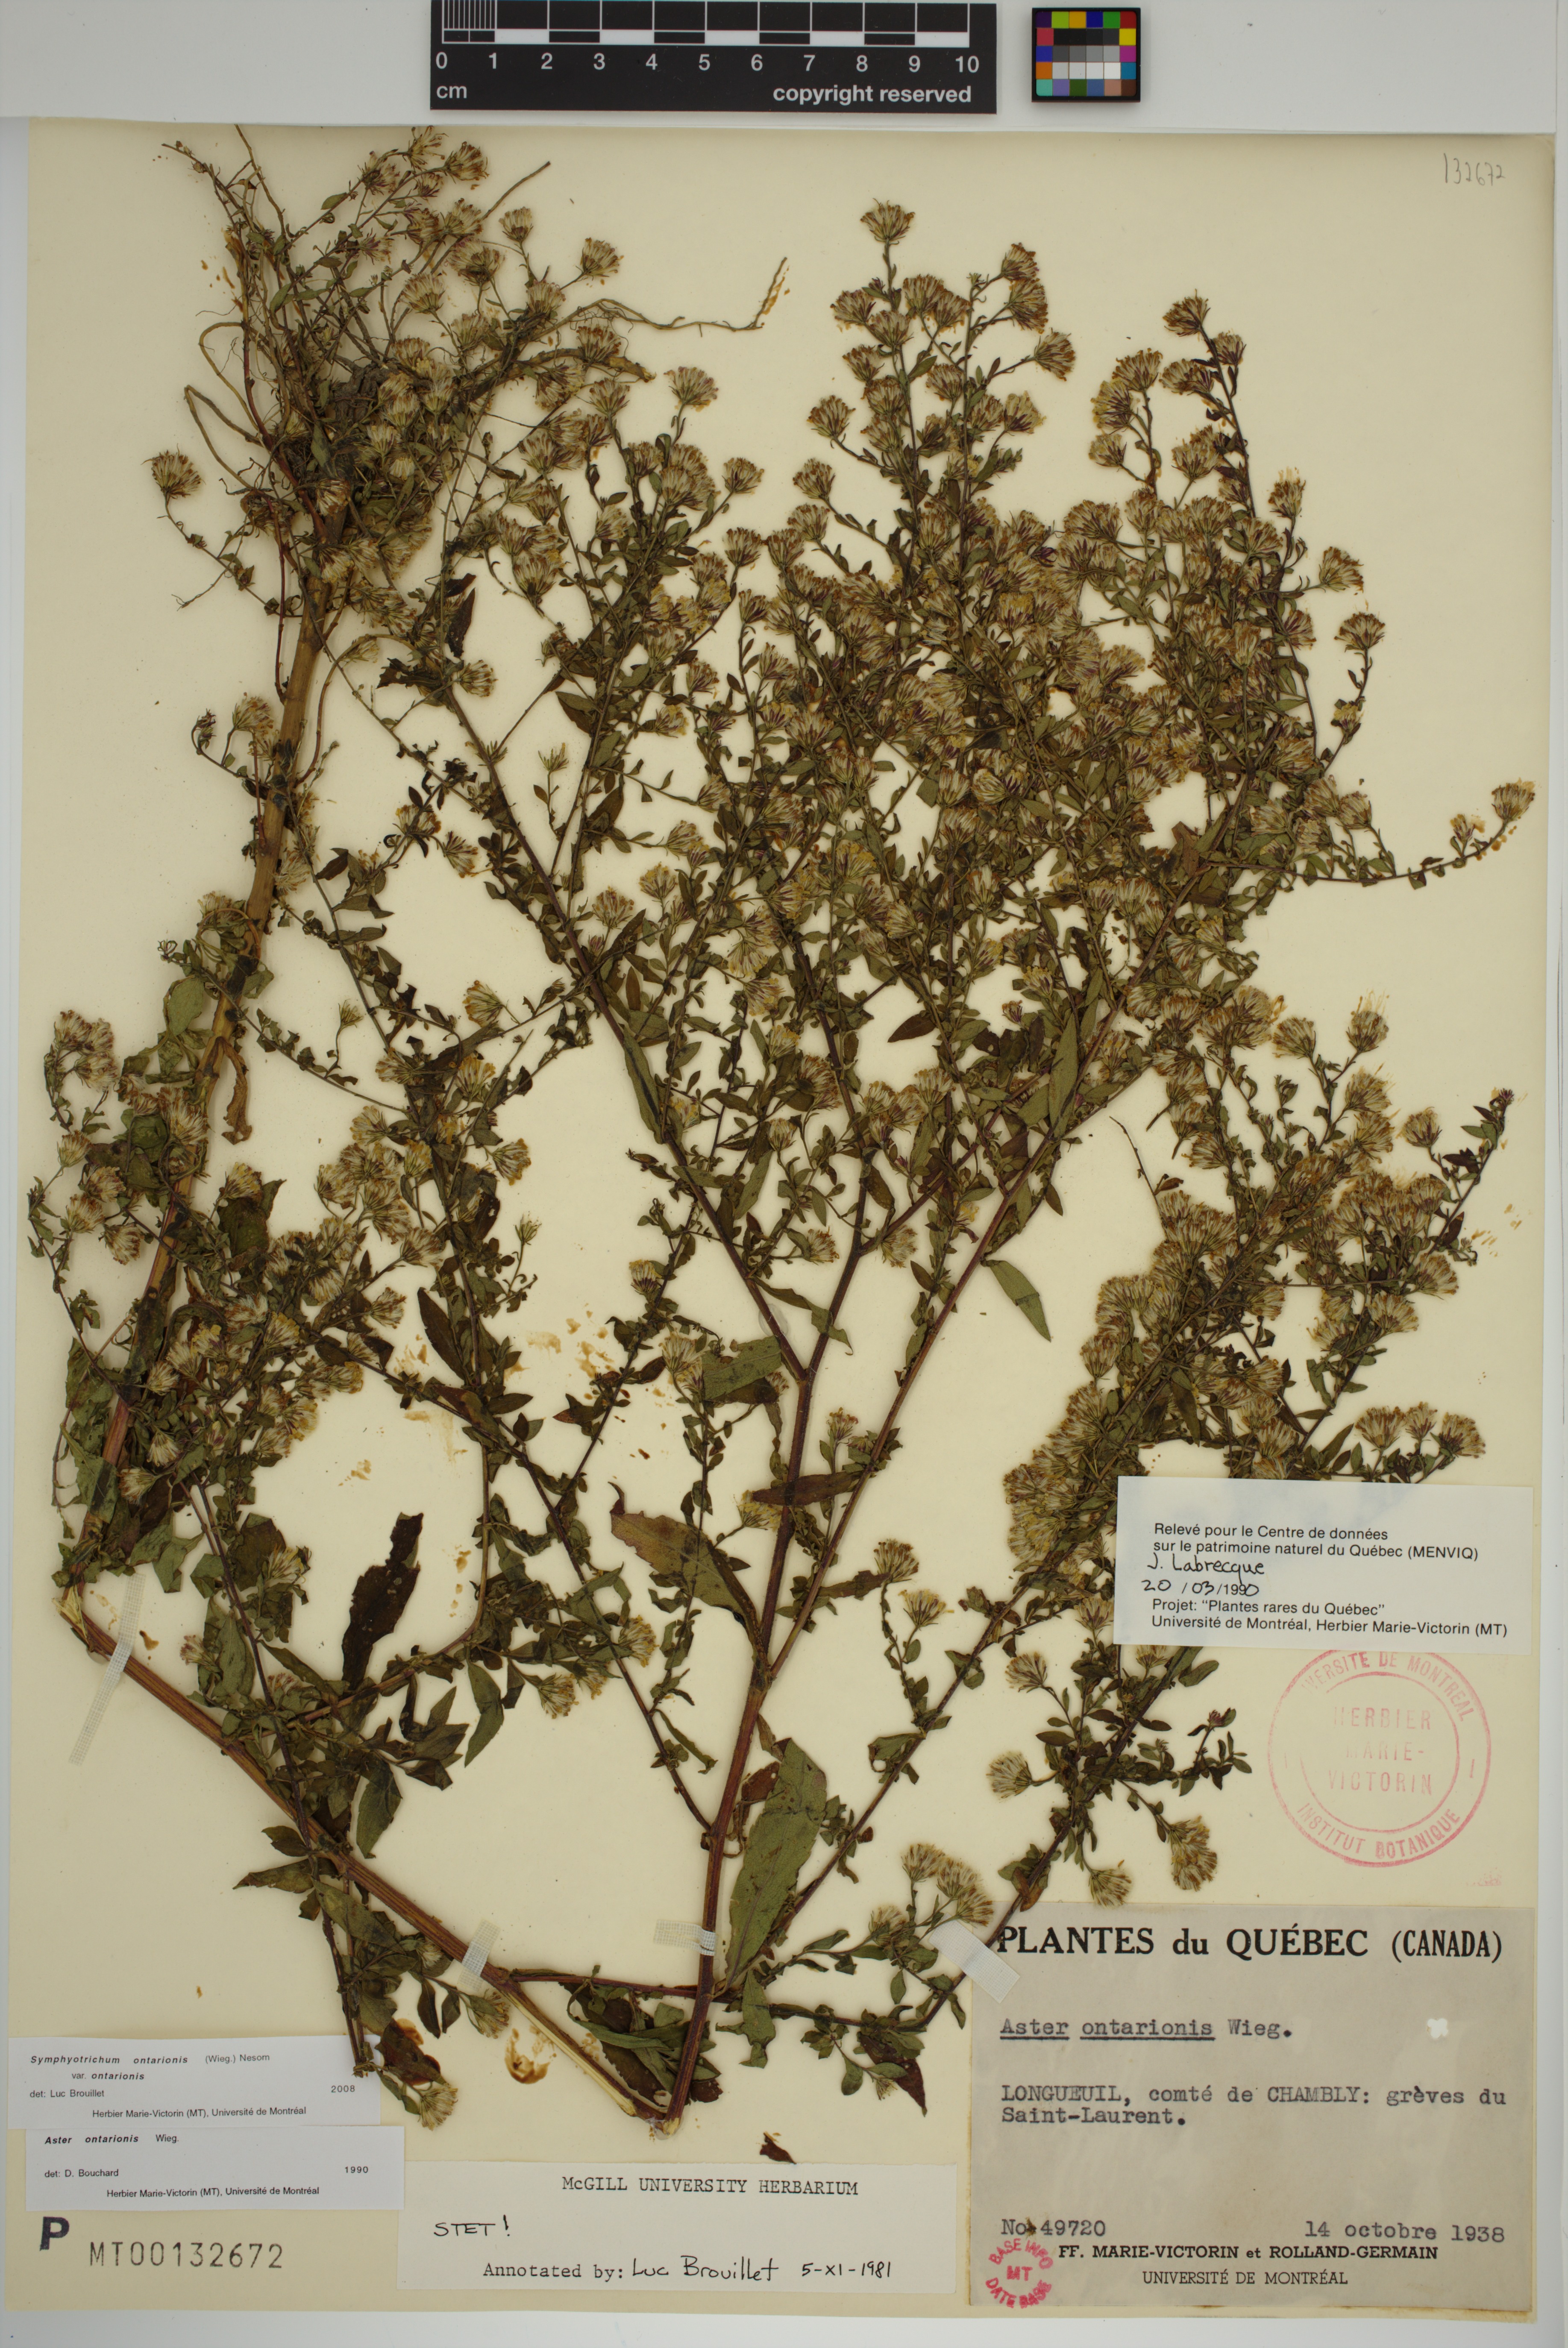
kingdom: Plantae
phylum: Tracheophyta
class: Magnoliopsida
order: Asterales
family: Asteraceae
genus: Symphyotrichum
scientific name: Symphyotrichum ontarionis
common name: Bottomland aster
